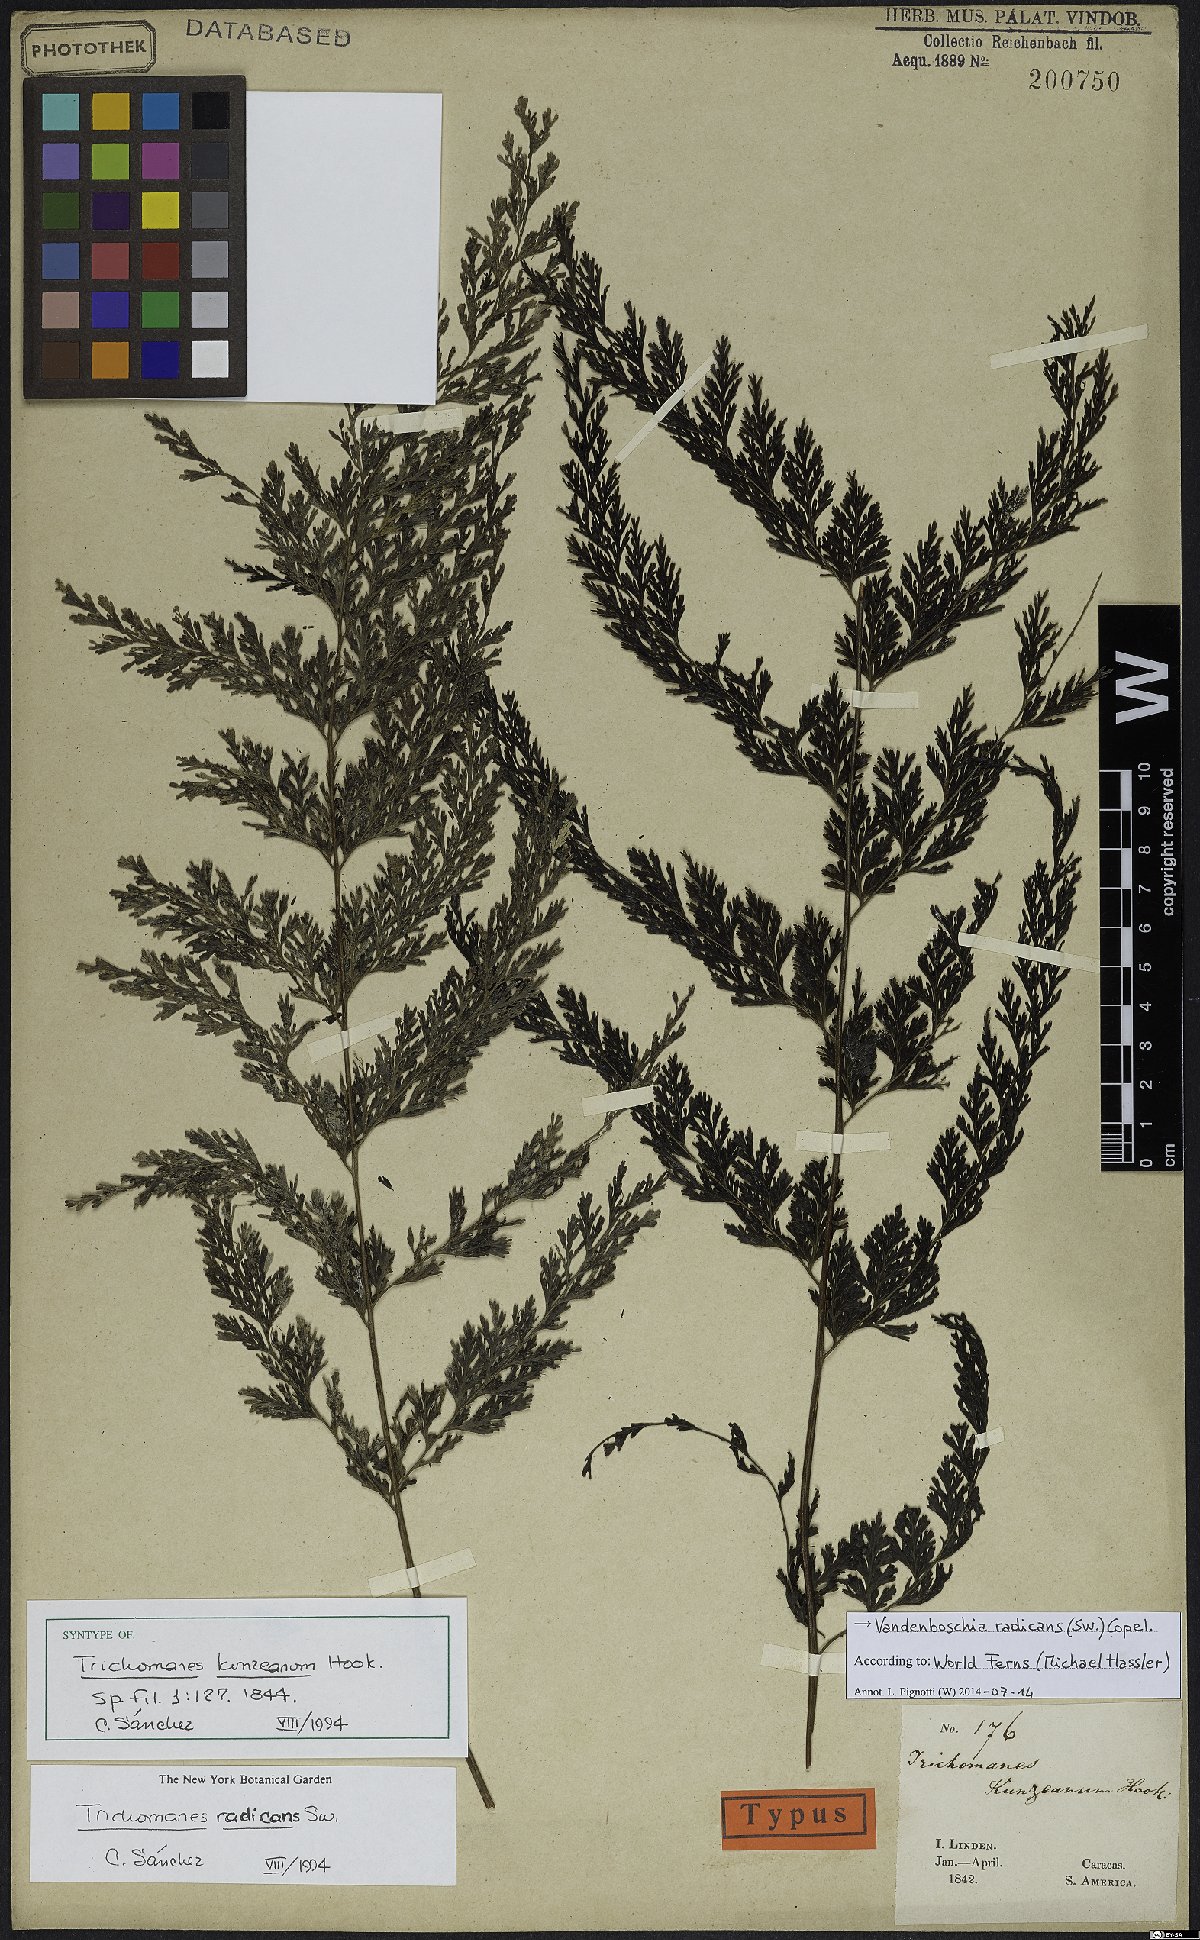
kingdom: Plantae
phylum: Tracheophyta
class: Polypodiopsida
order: Hymenophyllales
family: Hymenophyllaceae
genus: Vandenboschia
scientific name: Vandenboschia radicans
